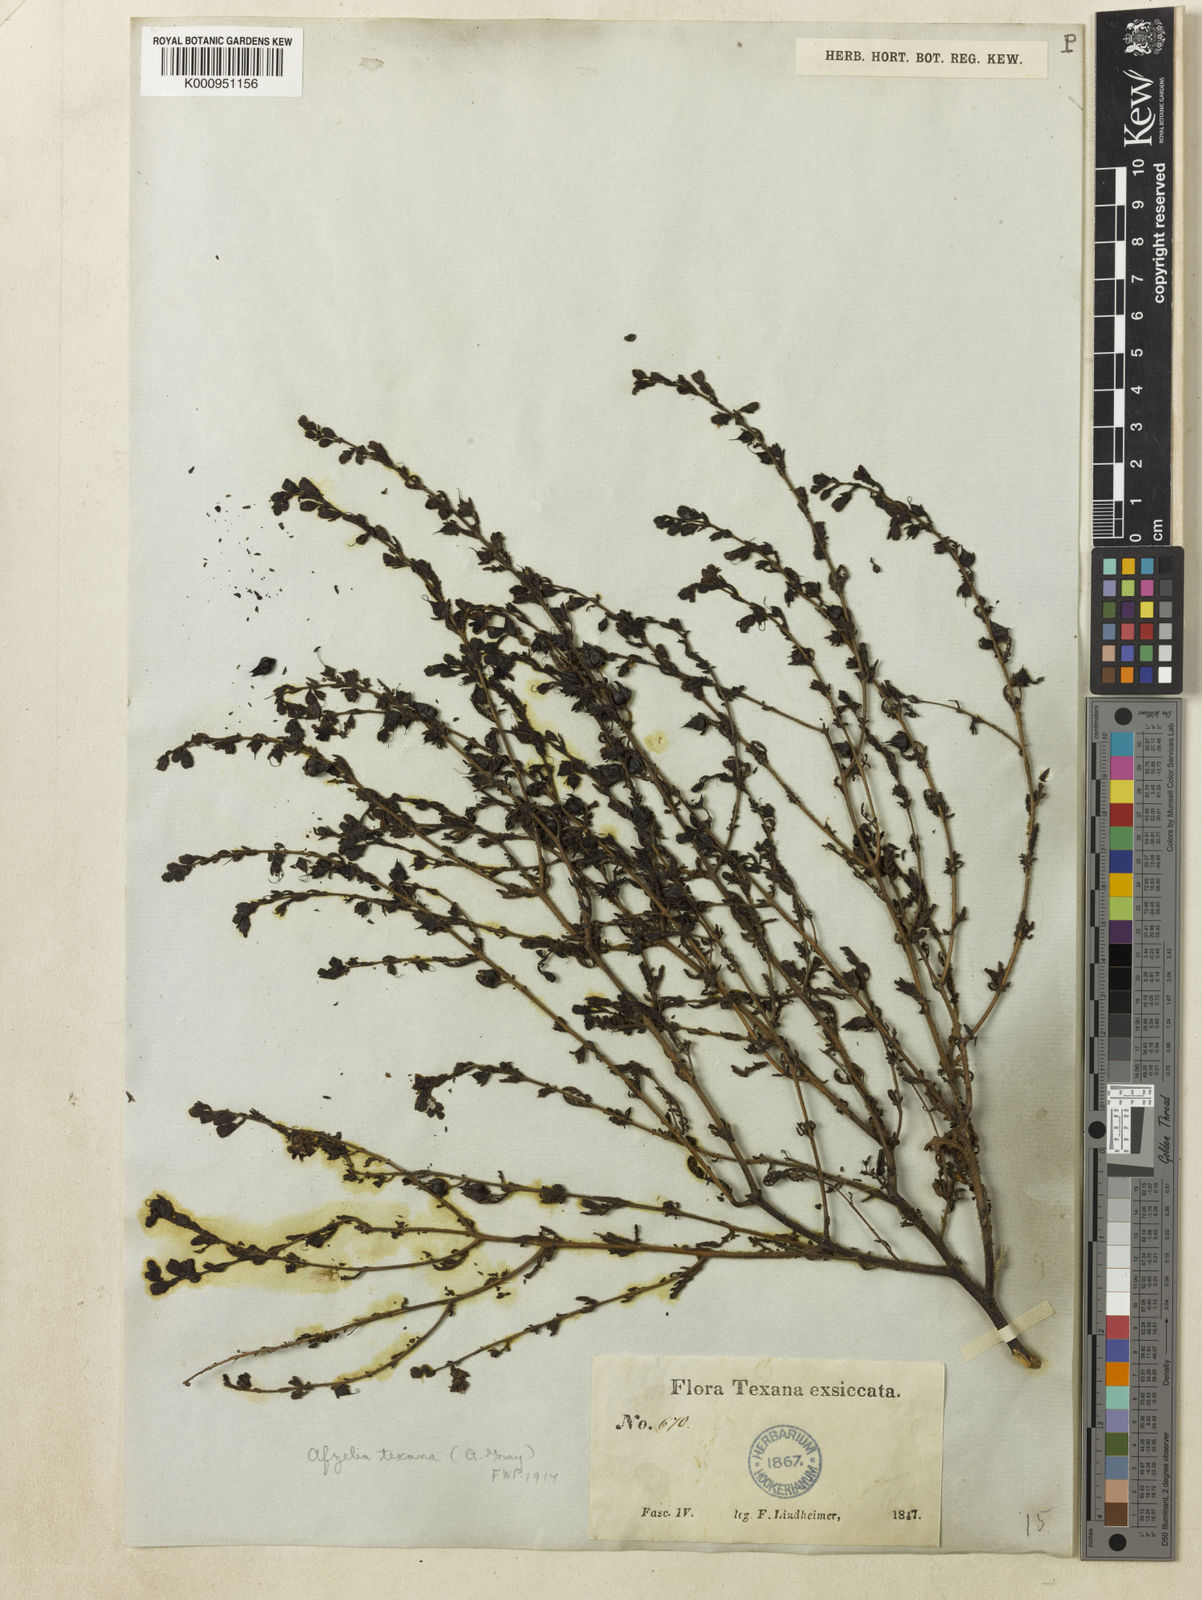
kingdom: Plantae
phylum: Tracheophyta
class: Magnoliopsida
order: Lamiales
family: Orobanchaceae
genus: Seymeria
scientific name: Seymeria
